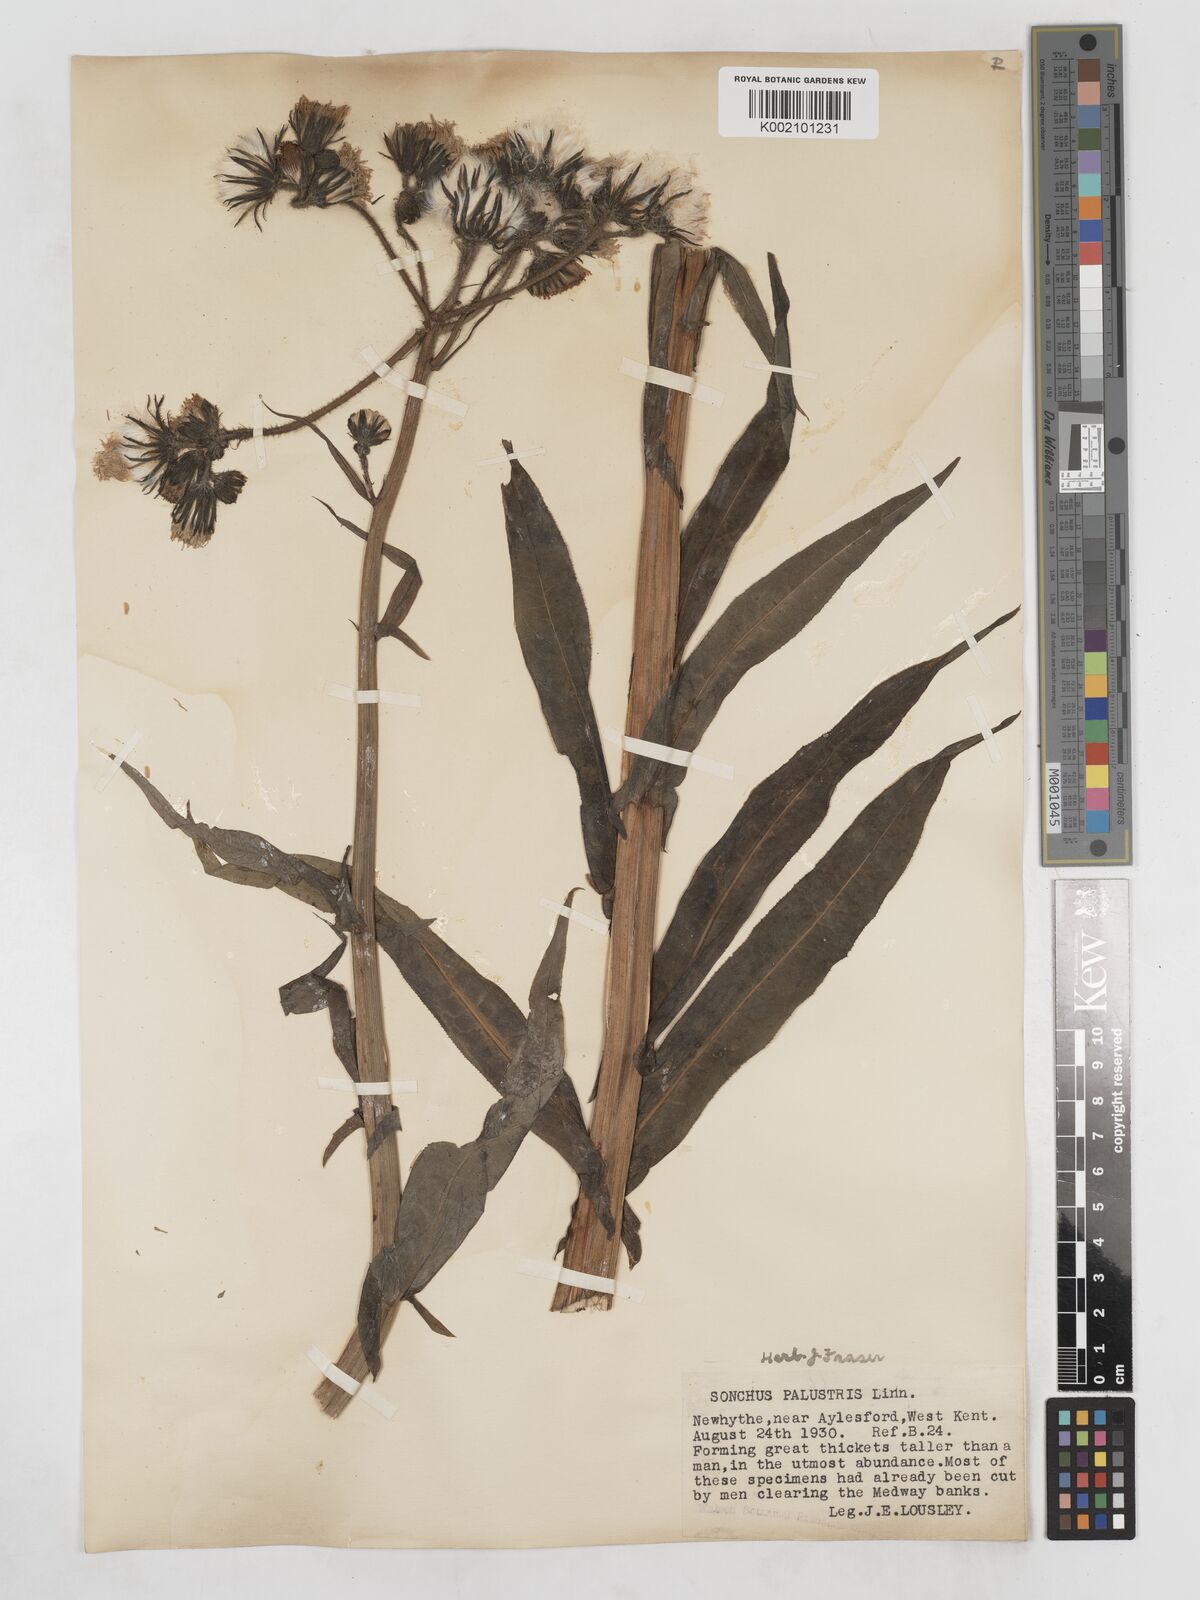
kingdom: Plantae
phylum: Tracheophyta
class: Magnoliopsida
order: Asterales
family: Asteraceae
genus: Sonchus
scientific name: Sonchus palustris
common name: Marsh sow-thistle
